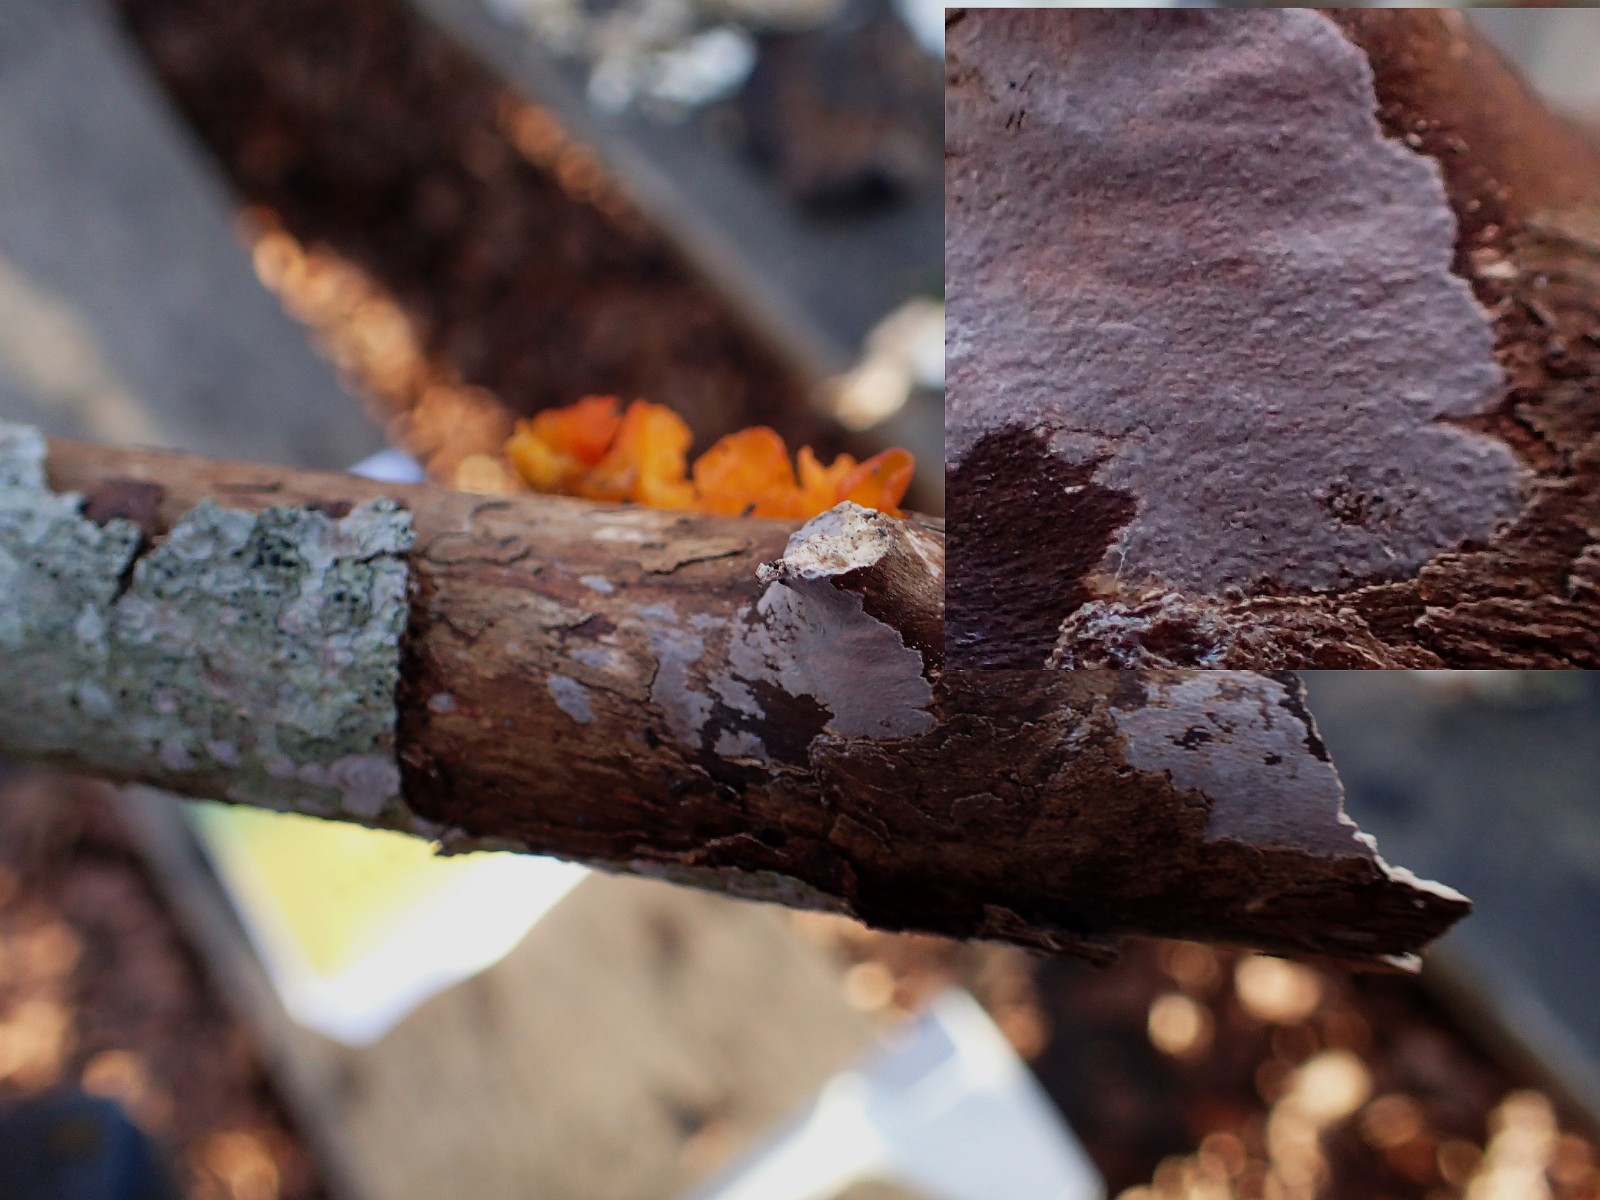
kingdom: Fungi
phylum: Basidiomycota
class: Agaricomycetes
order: Russulales
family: Peniophoraceae
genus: Peniophora
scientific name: Peniophora quercina
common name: ege-voksskind
